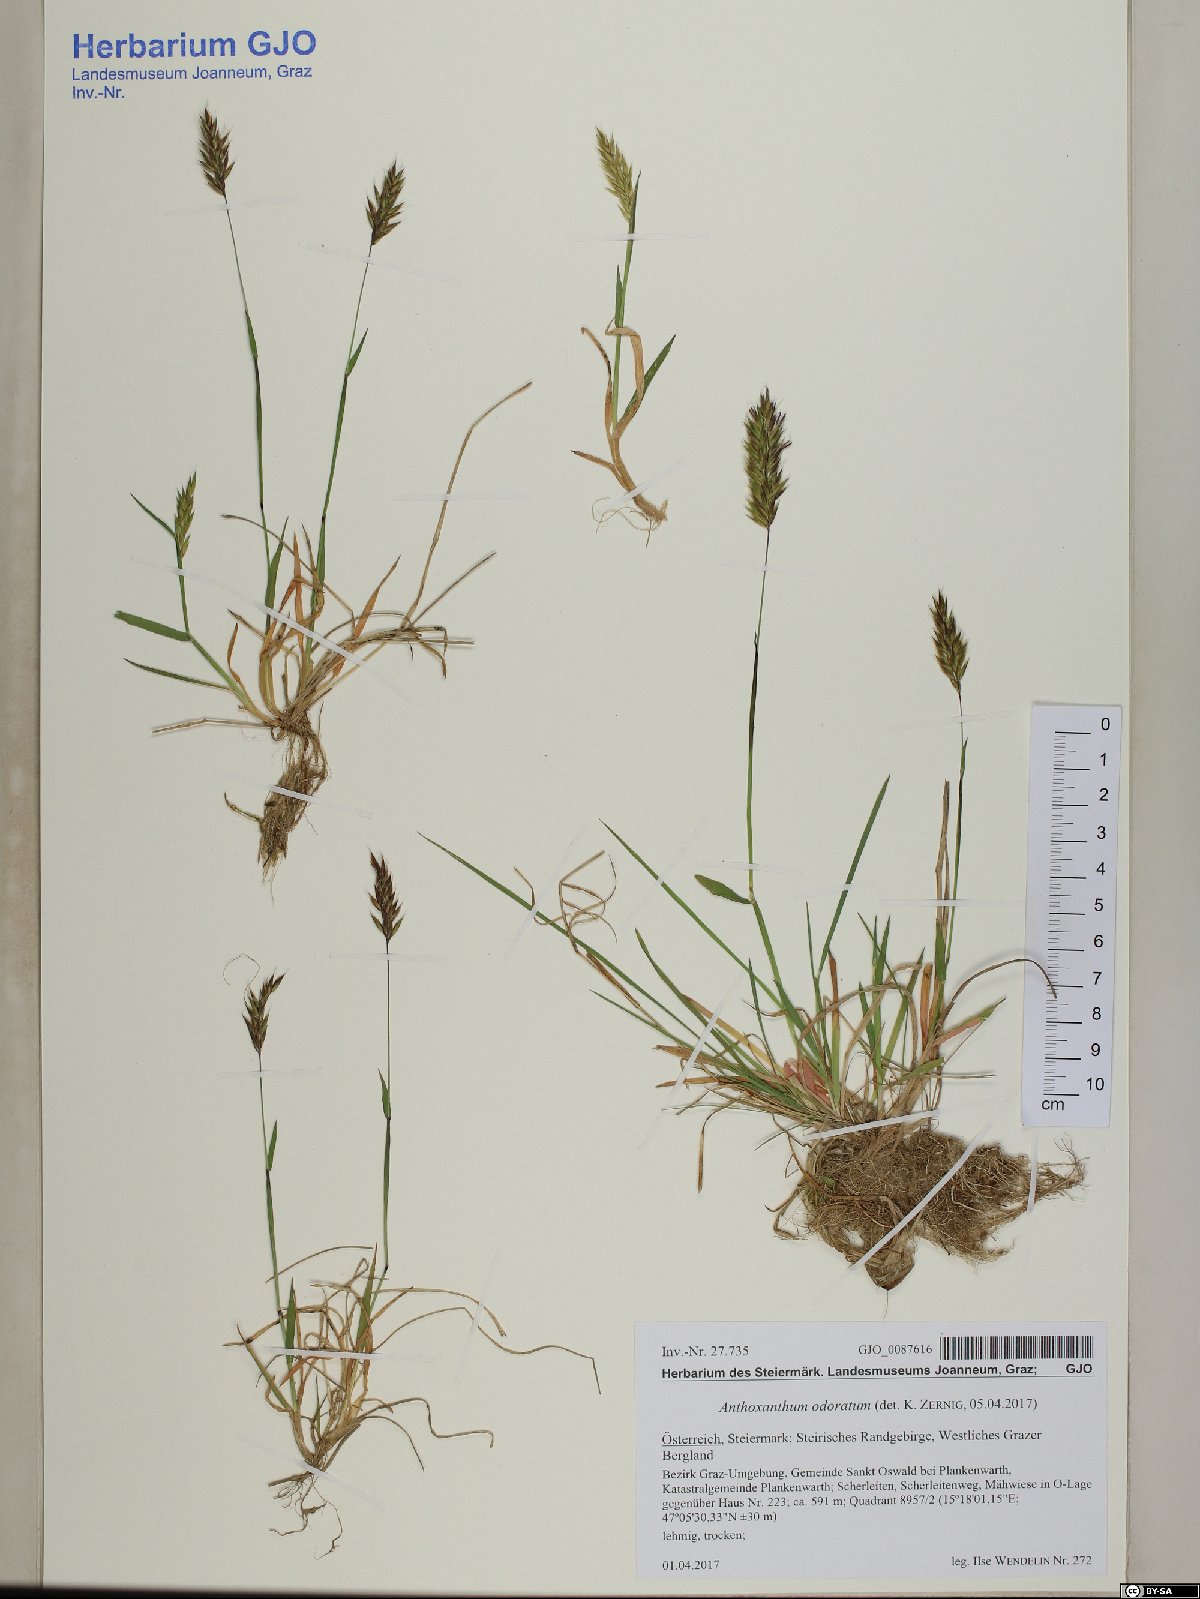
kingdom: Plantae
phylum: Tracheophyta
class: Liliopsida
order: Poales
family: Poaceae
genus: Anthoxanthum
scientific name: Anthoxanthum odoratum
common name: Sweet vernalgrass
